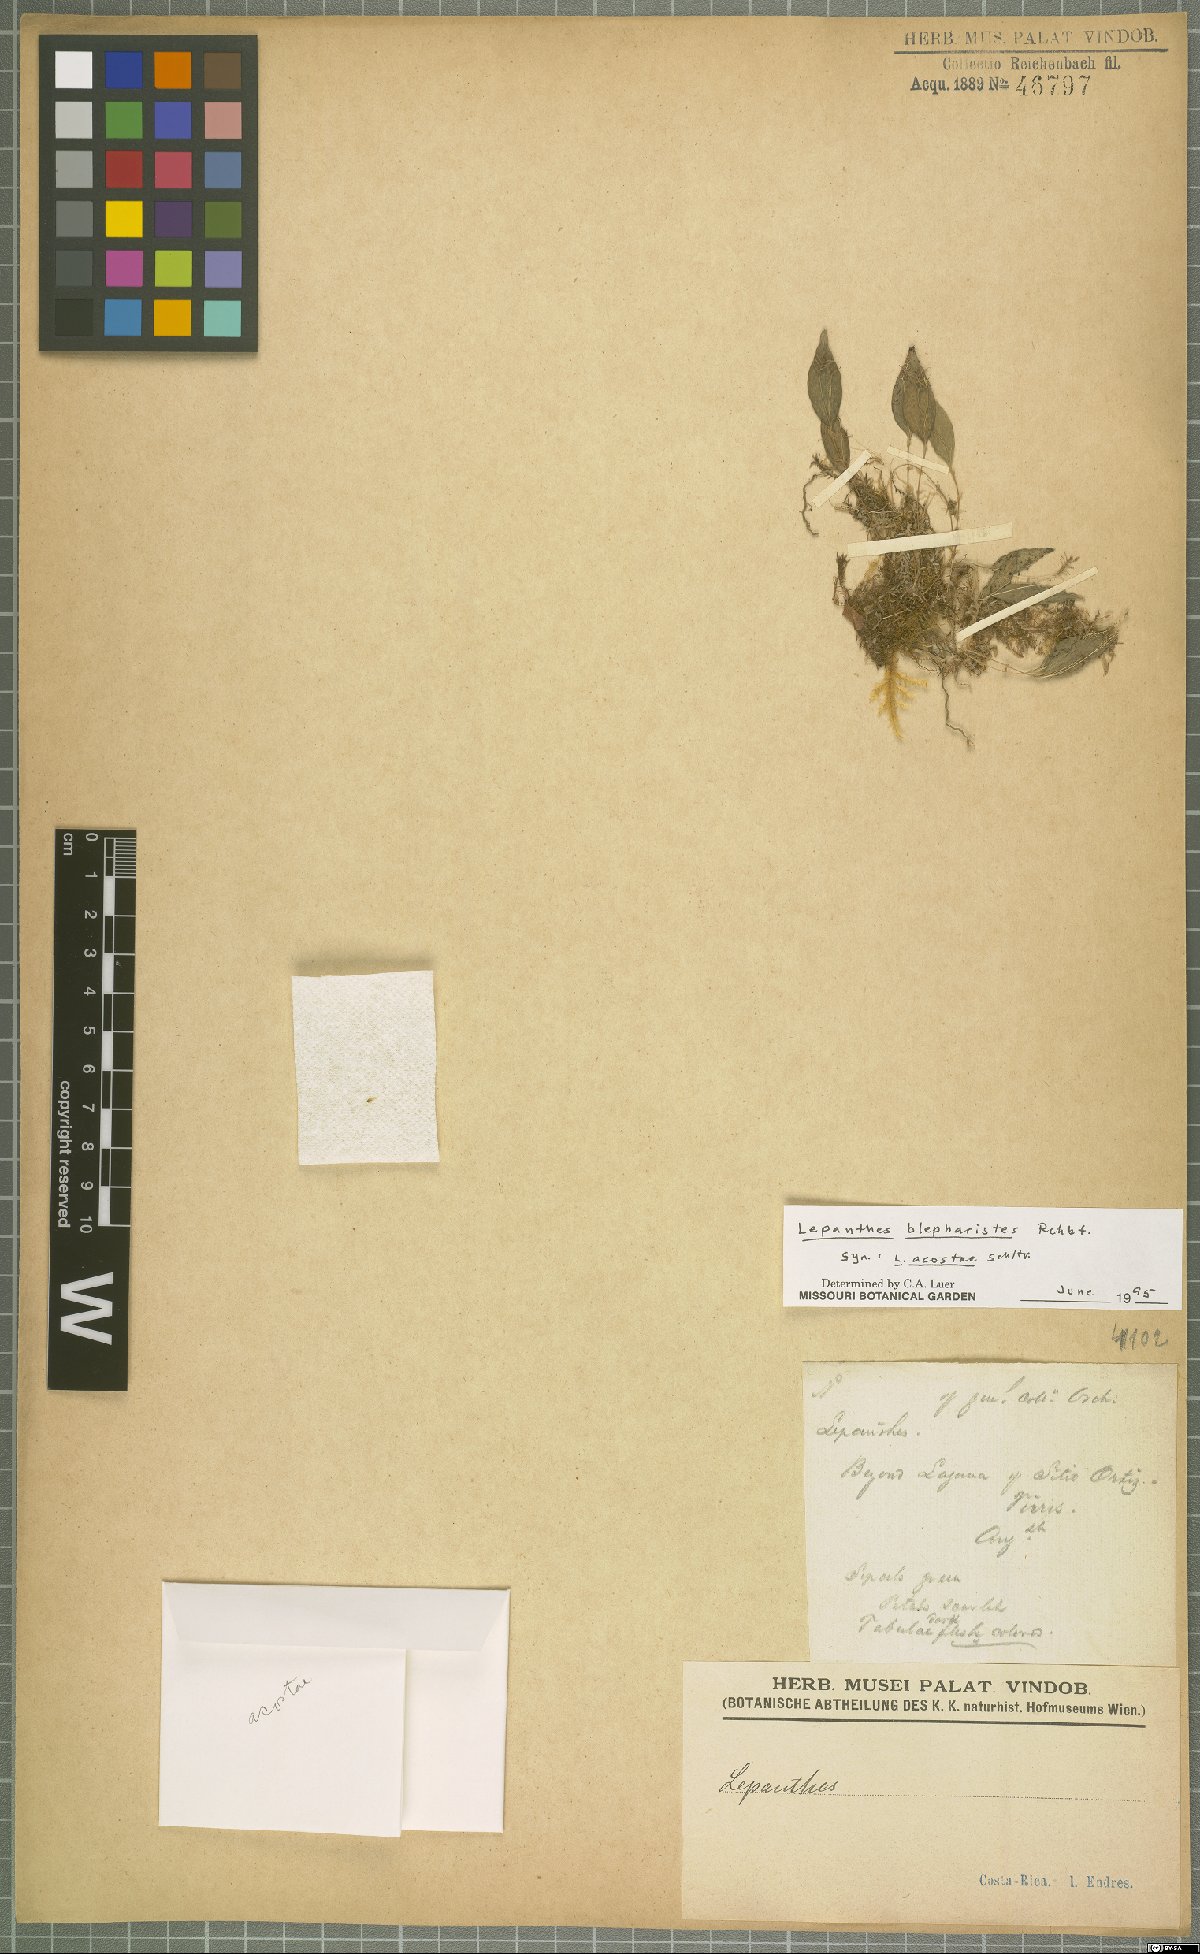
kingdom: Plantae
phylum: Tracheophyta
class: Liliopsida
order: Asparagales
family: Orchidaceae
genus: Lepanthes
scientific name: Lepanthes blepharistes
